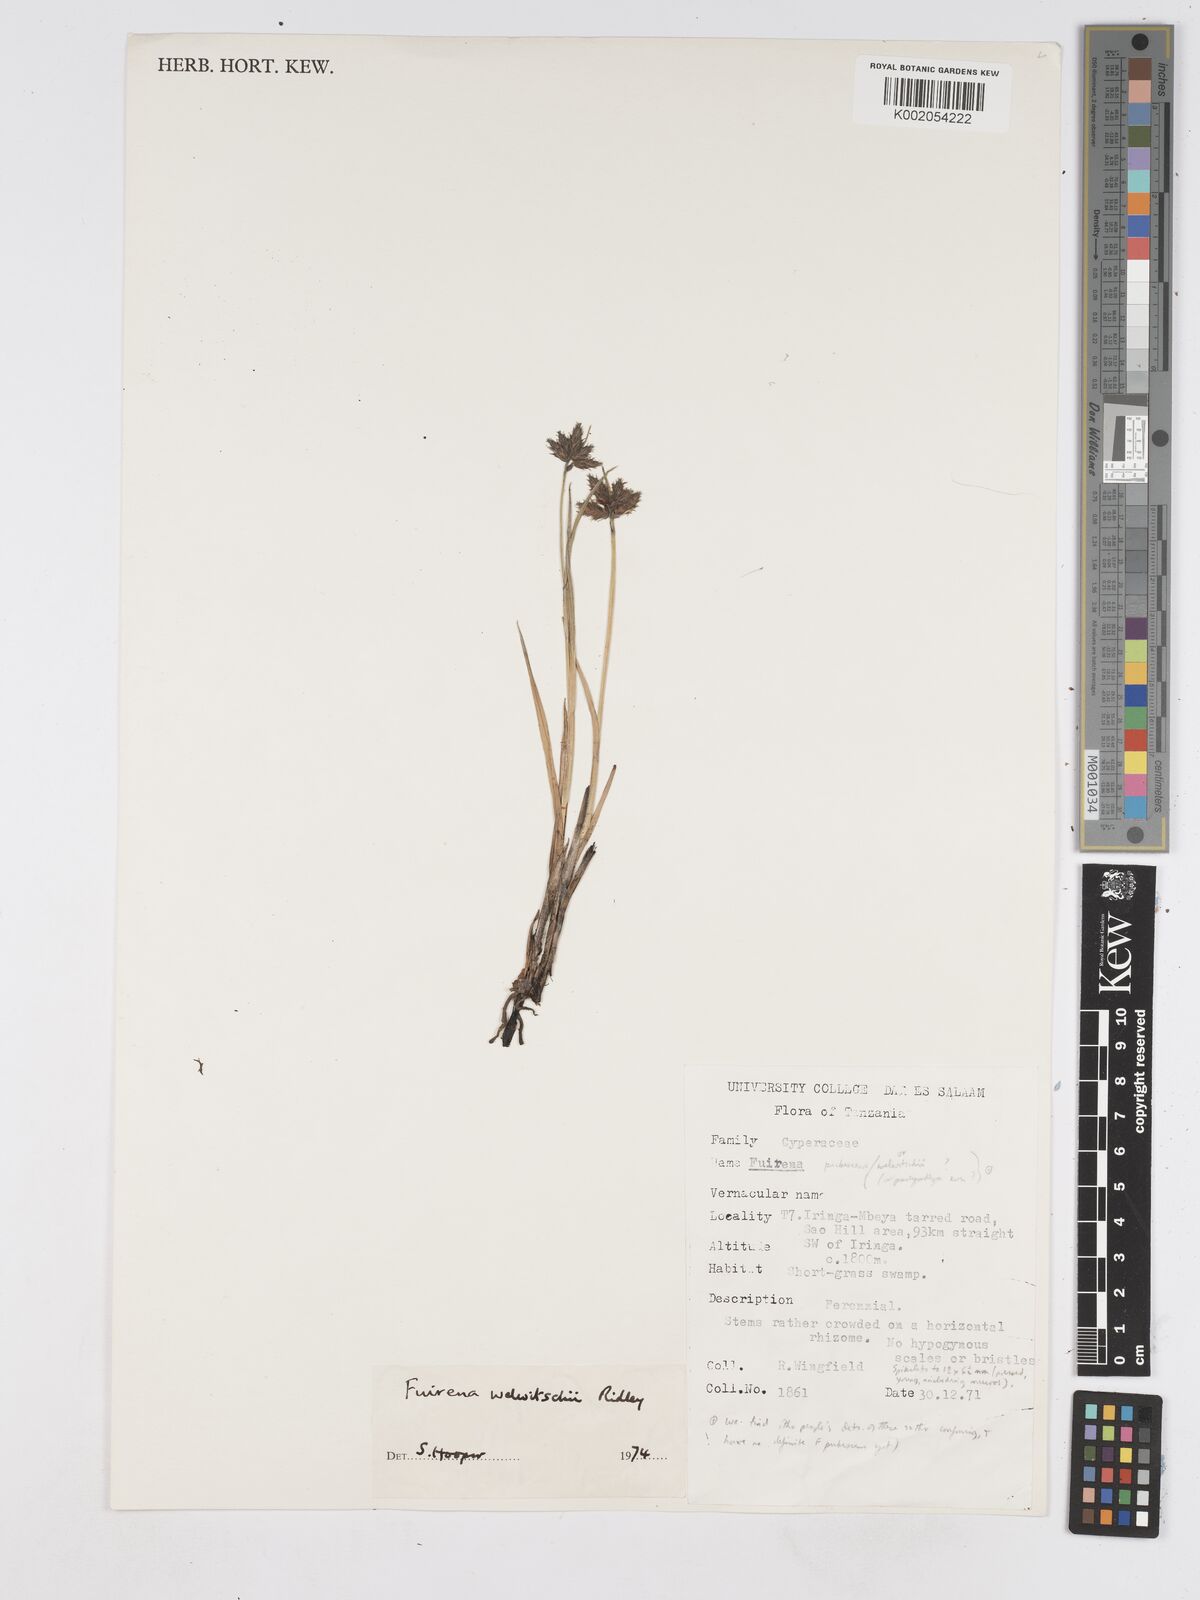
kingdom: Plantae
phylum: Tracheophyta
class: Liliopsida
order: Poales
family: Cyperaceae
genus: Fuirena
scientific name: Fuirena welwitschii
